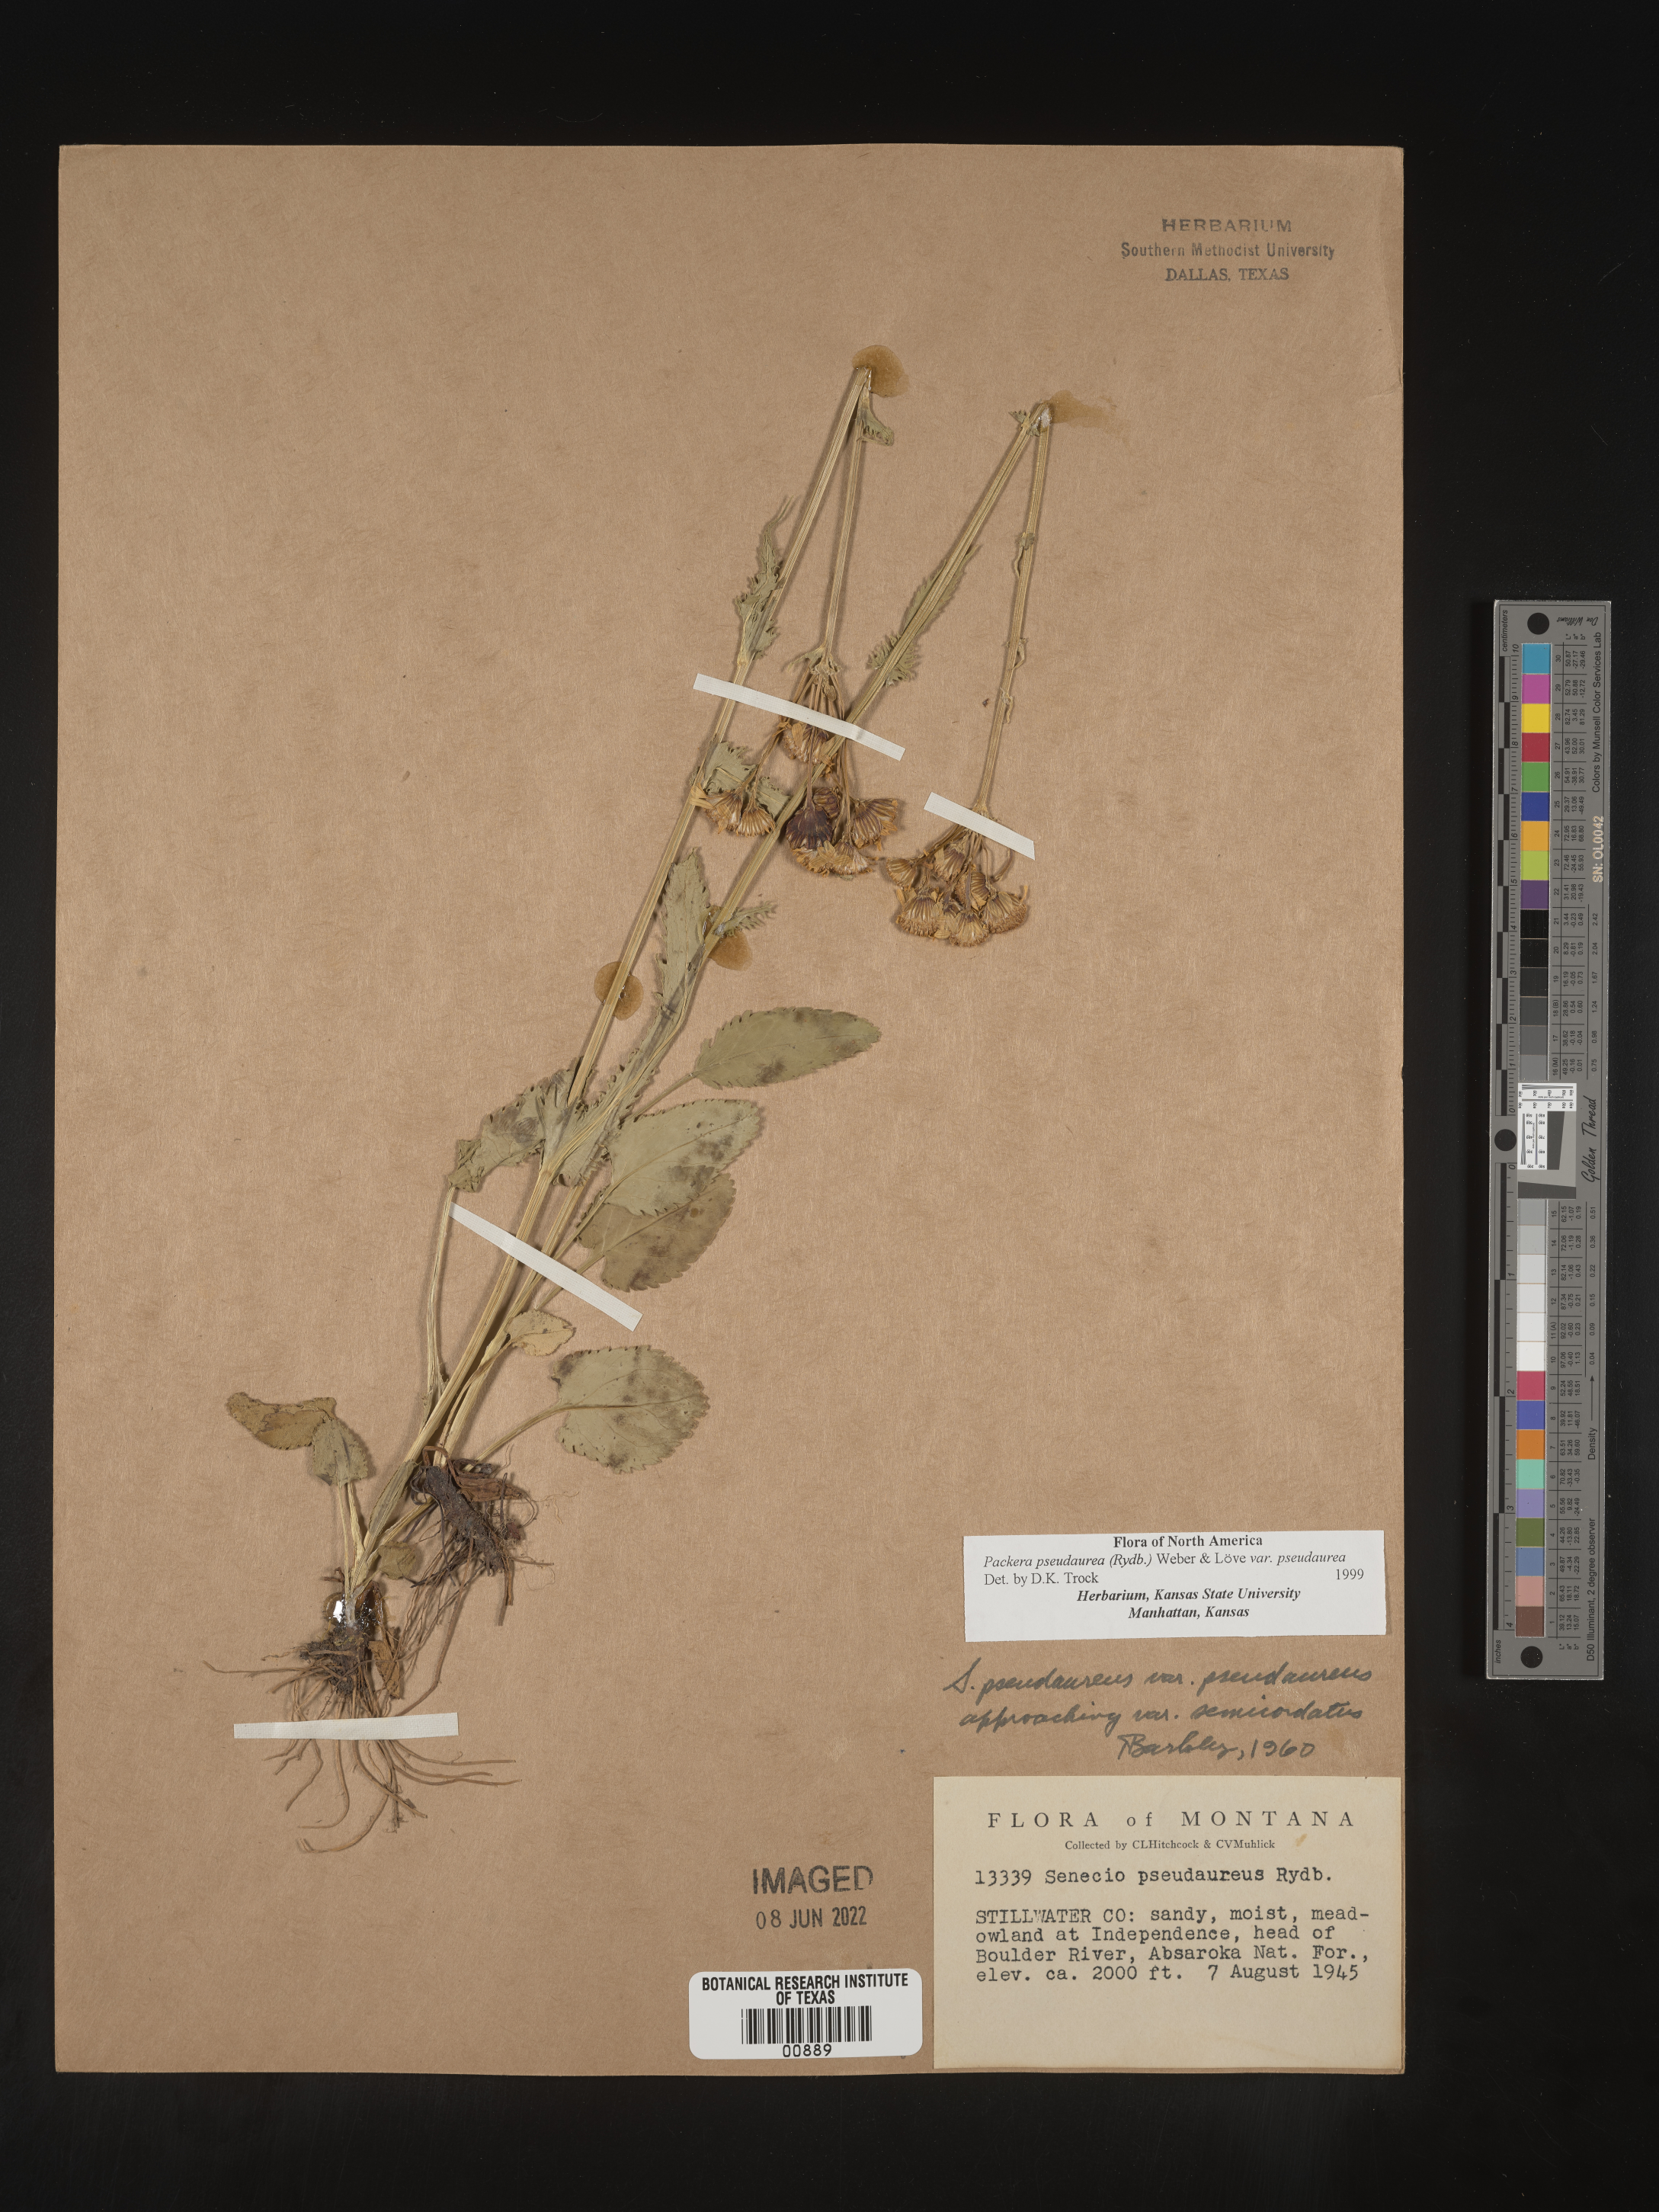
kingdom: Plantae
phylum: Tracheophyta
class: Magnoliopsida
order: Asterales
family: Asteraceae
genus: Packera
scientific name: Packera pseudaurea
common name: False-gold groundsel
